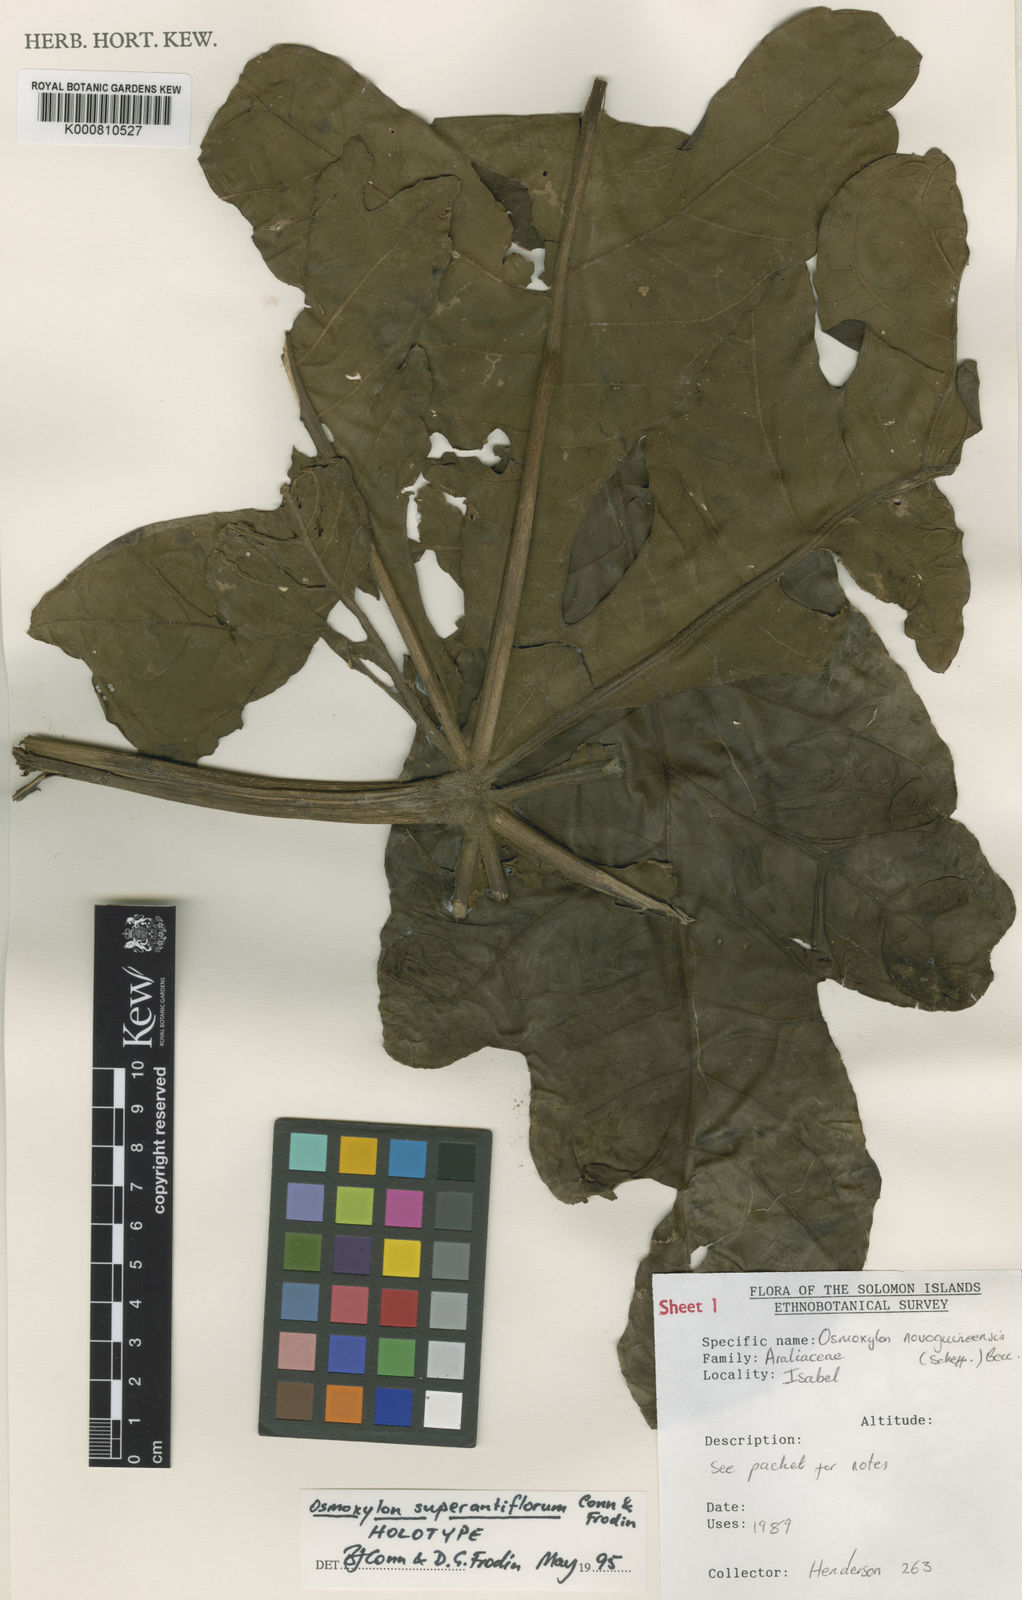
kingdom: Plantae
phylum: Tracheophyta
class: Magnoliopsida
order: Apiales
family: Araliaceae
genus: Osmoxylon
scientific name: Osmoxylon superantiflorum
